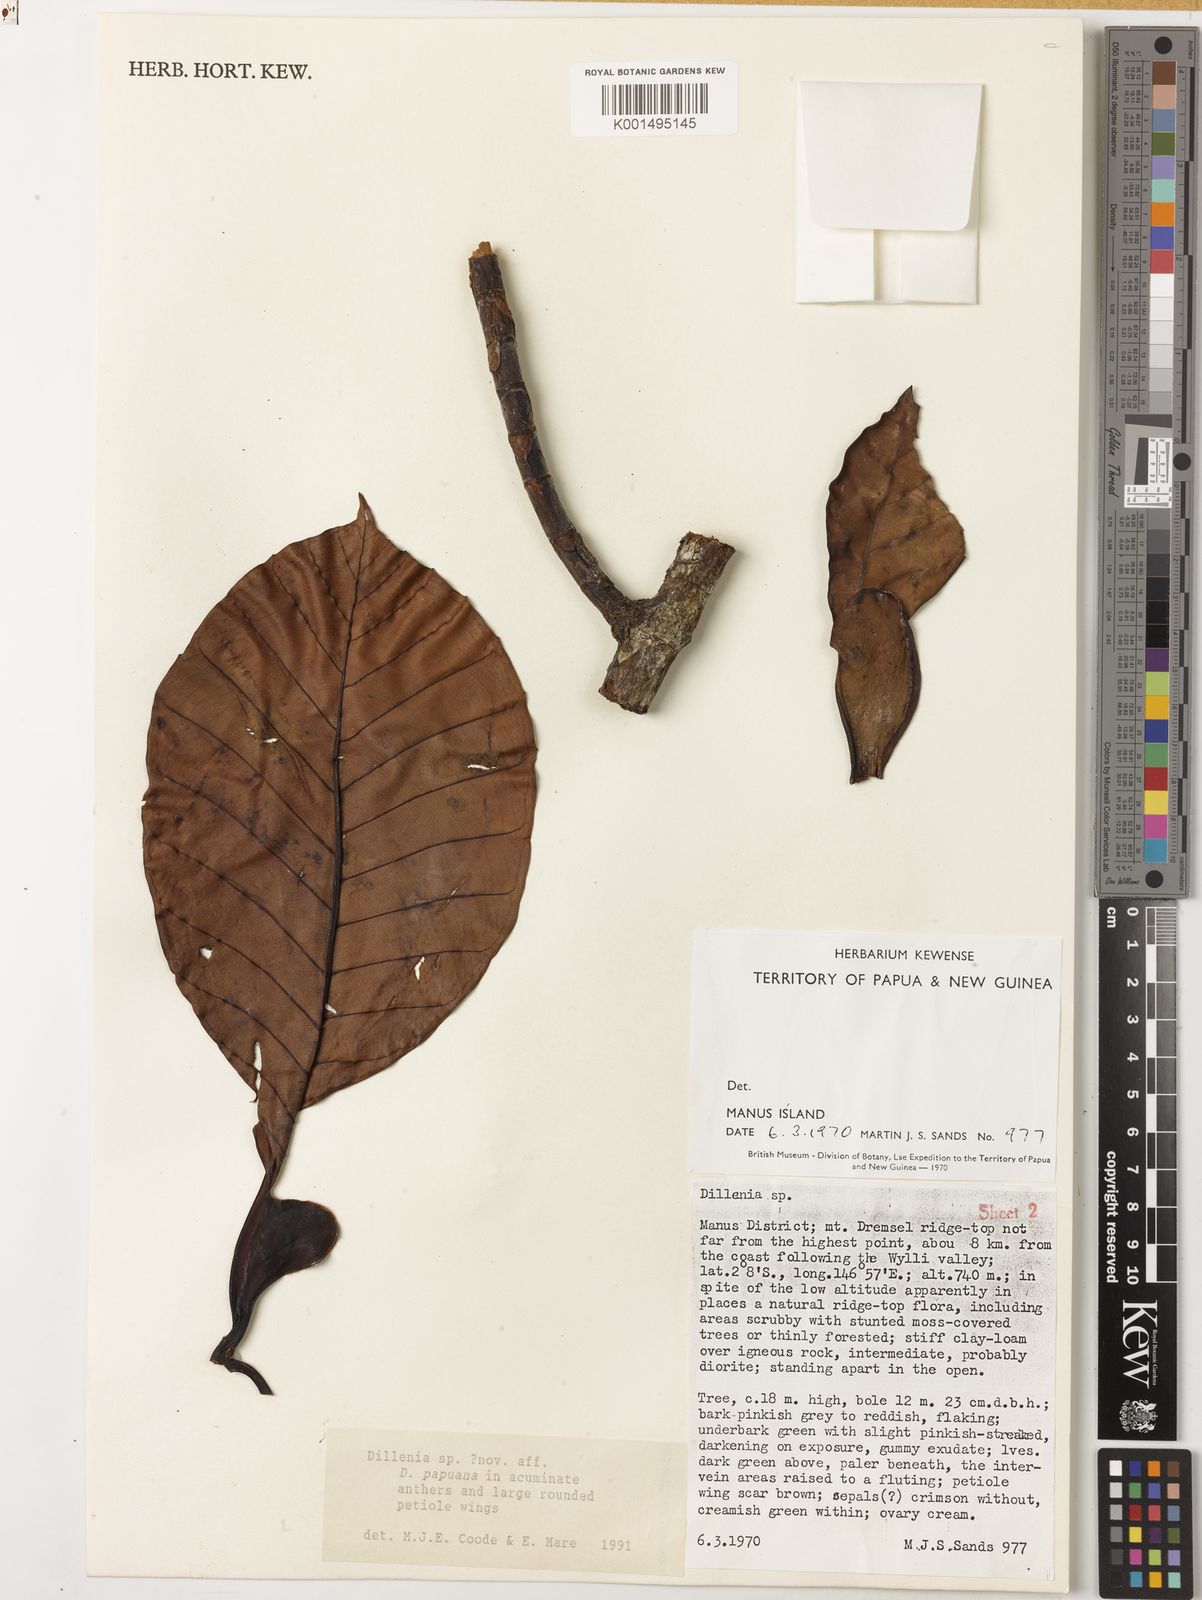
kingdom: Plantae
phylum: Tracheophyta
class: Magnoliopsida
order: Dilleniales
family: Dilleniaceae
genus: Dillenia
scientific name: Dillenia
